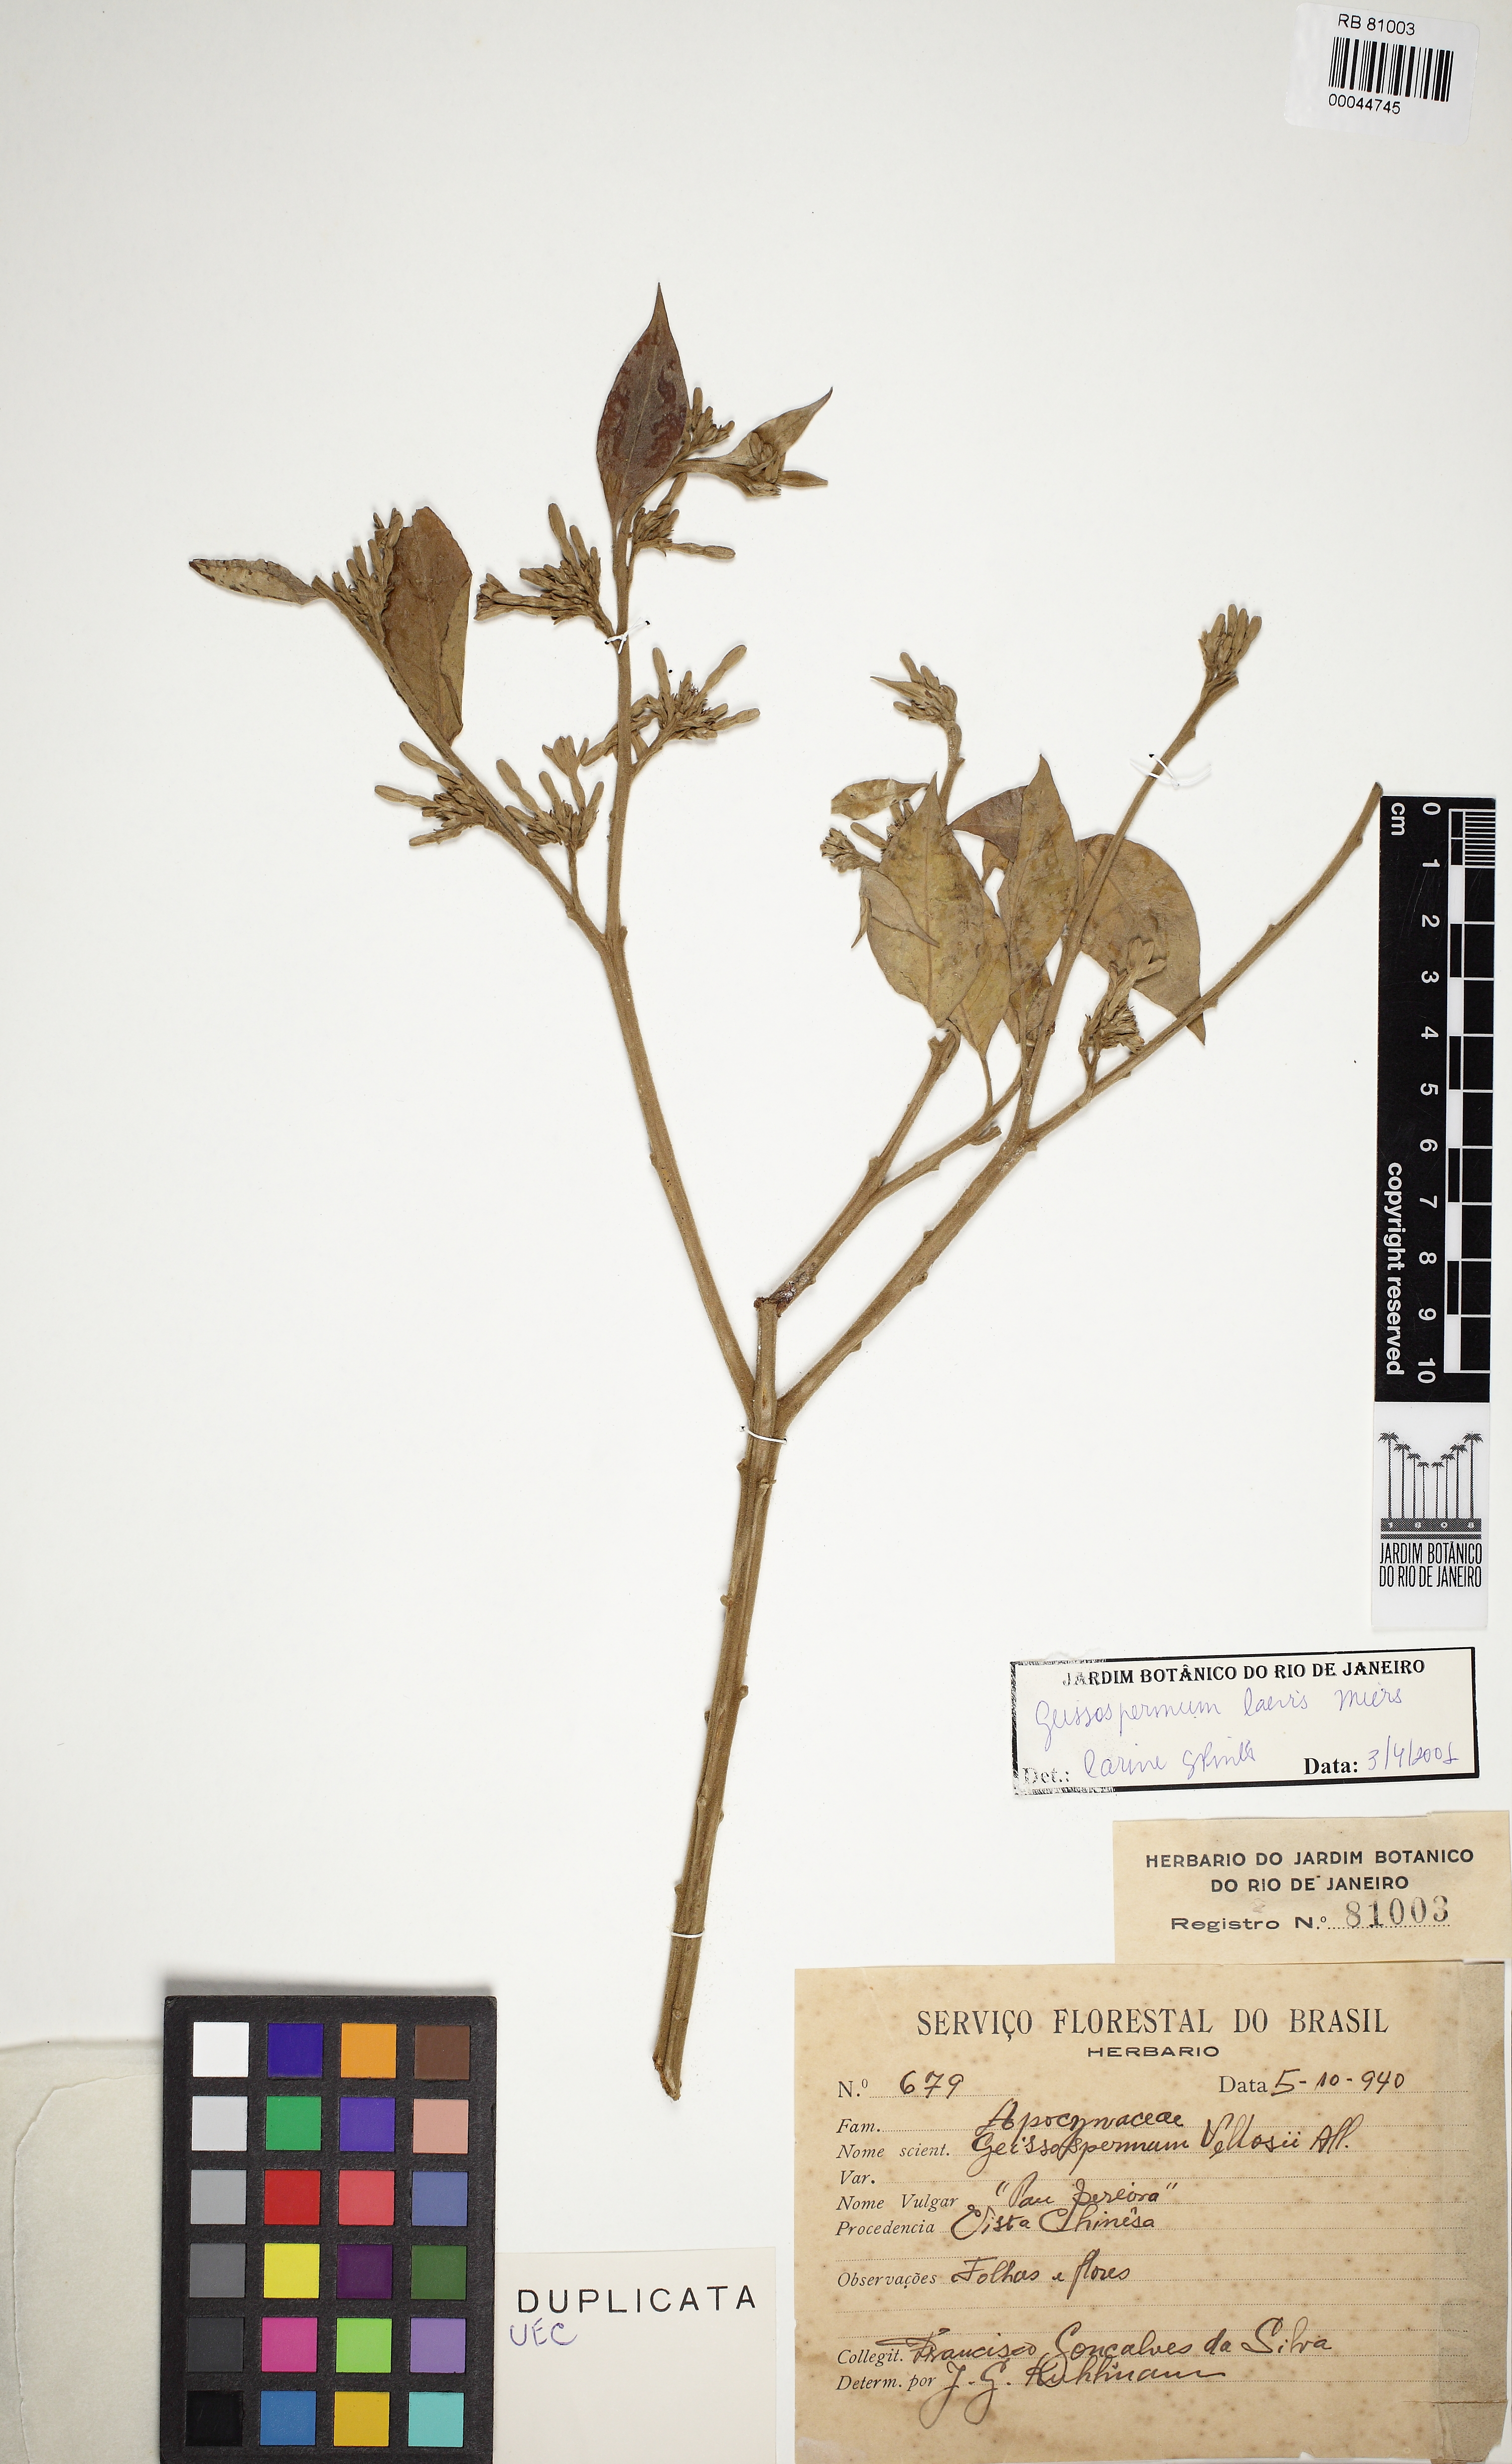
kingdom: Plantae
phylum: Tracheophyta
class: Magnoliopsida
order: Gentianales
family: Apocynaceae
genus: Geissospermum
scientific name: Geissospermum laeve
